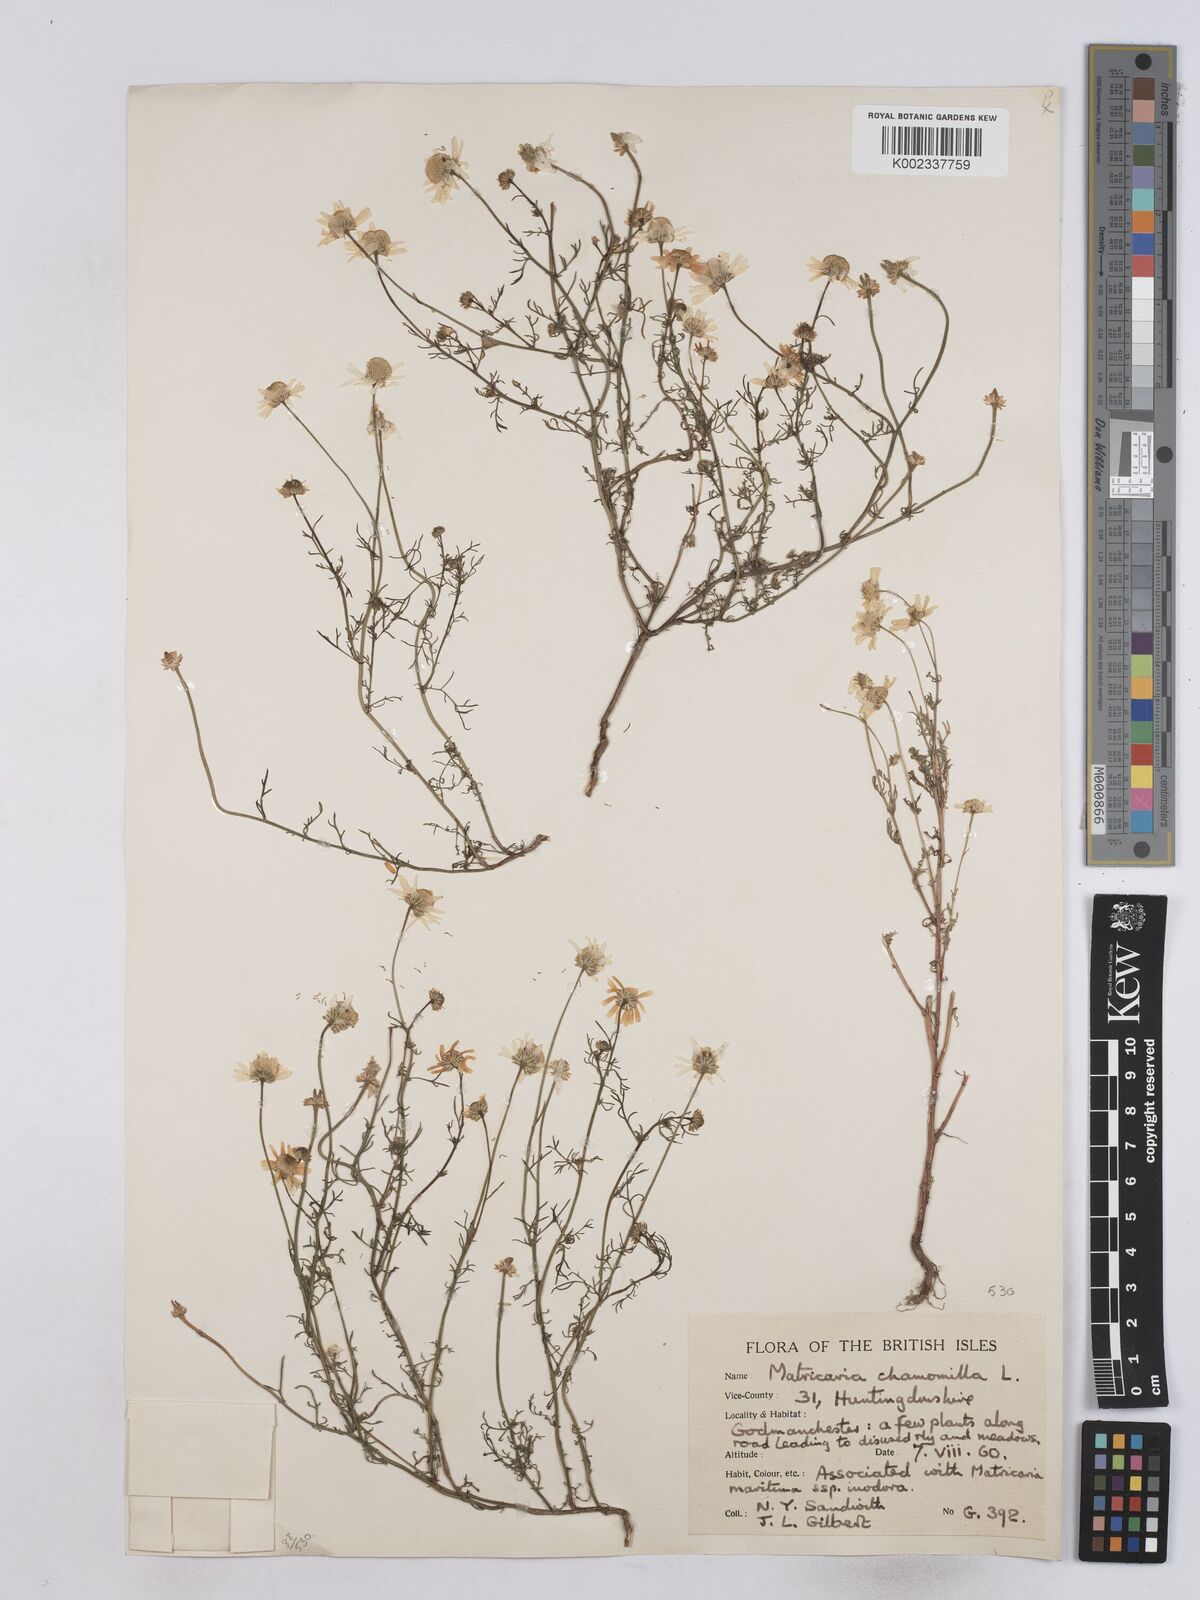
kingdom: Plantae
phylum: Tracheophyta
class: Magnoliopsida
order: Asterales
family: Asteraceae
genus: Matricaria
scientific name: Matricaria chamomilla
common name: Scented mayweed
